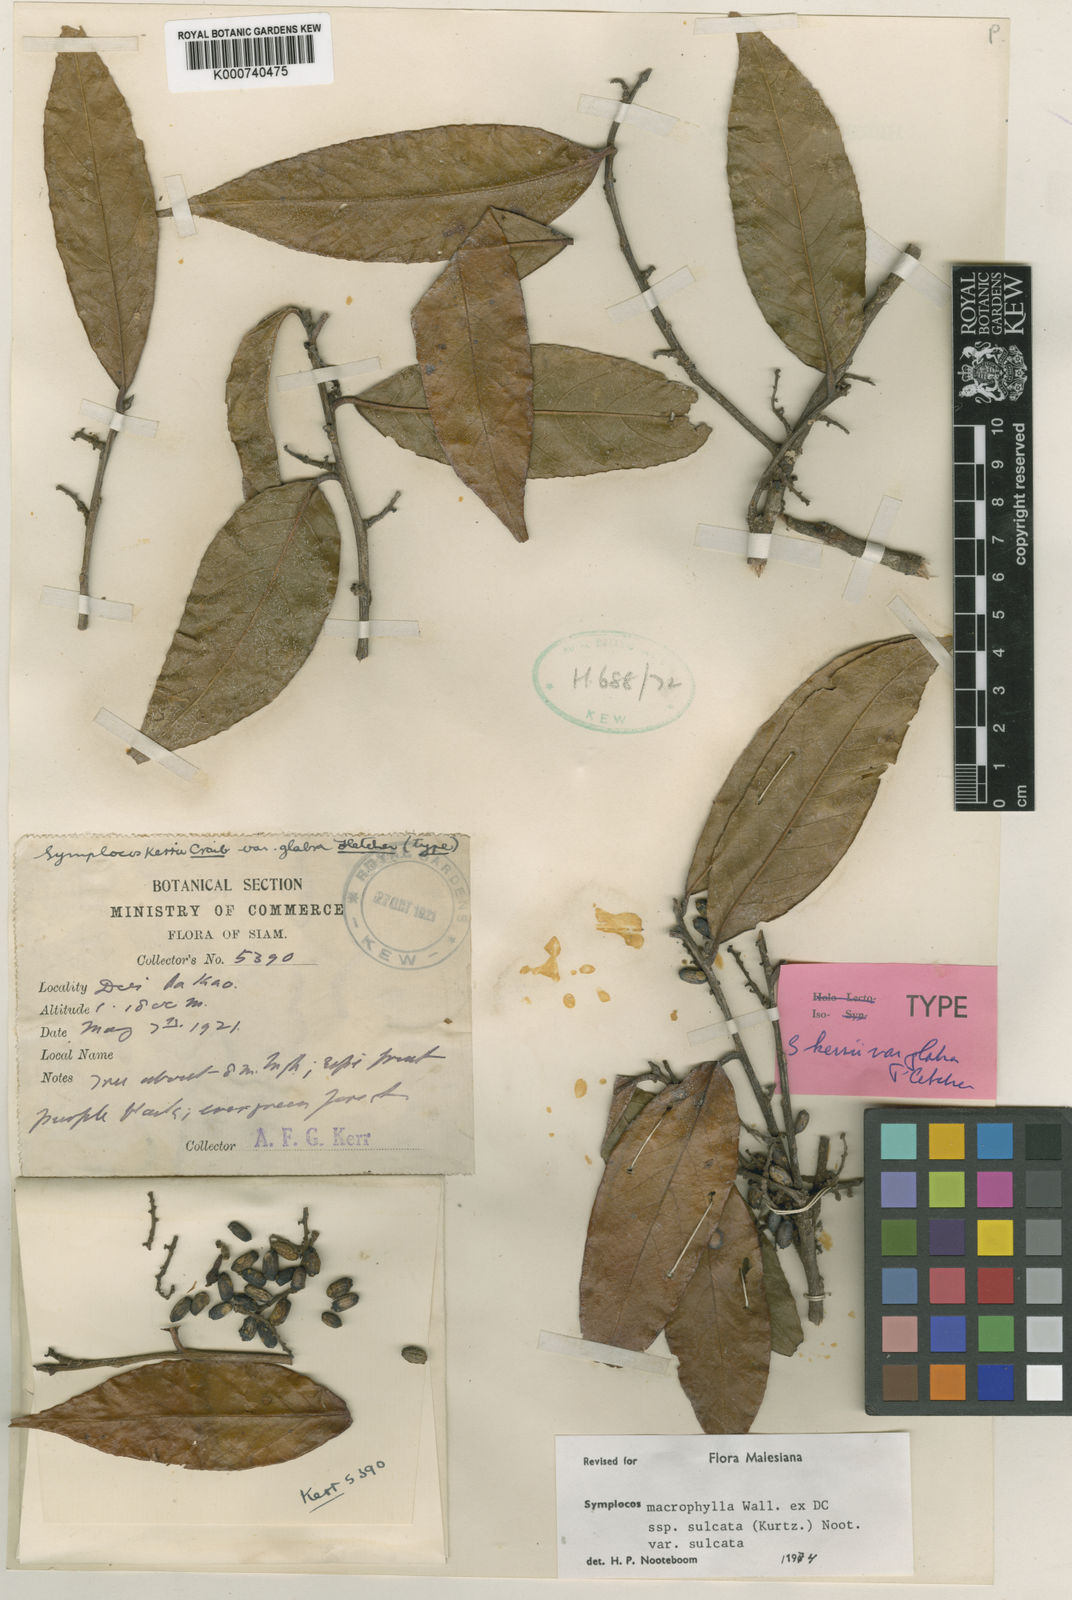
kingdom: Plantae
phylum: Tracheophyta
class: Magnoliopsida
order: Ericales
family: Symplocaceae
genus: Symplocos
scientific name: Symplocos sulcata
